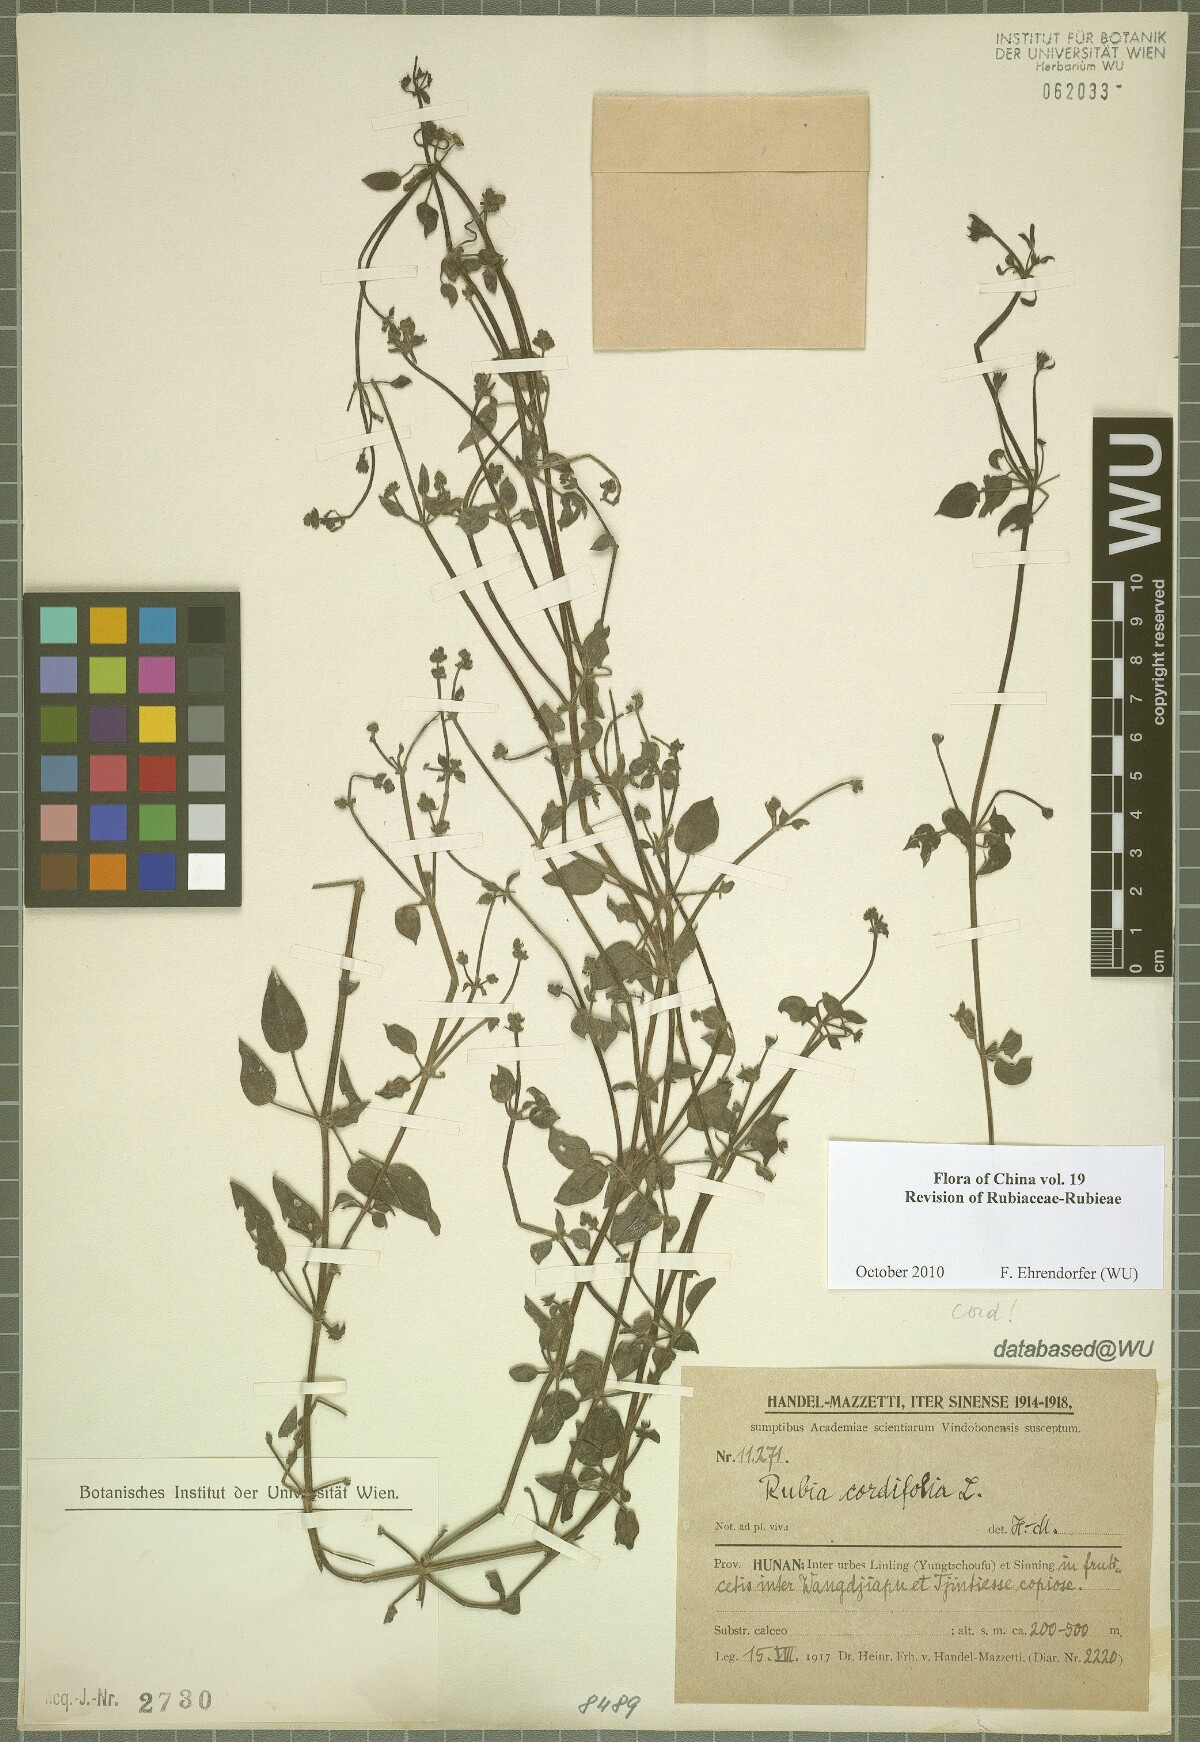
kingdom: Plantae
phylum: Tracheophyta
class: Magnoliopsida
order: Gentianales
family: Rubiaceae
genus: Rubia
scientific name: Rubia cordifolia
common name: Indian madder
